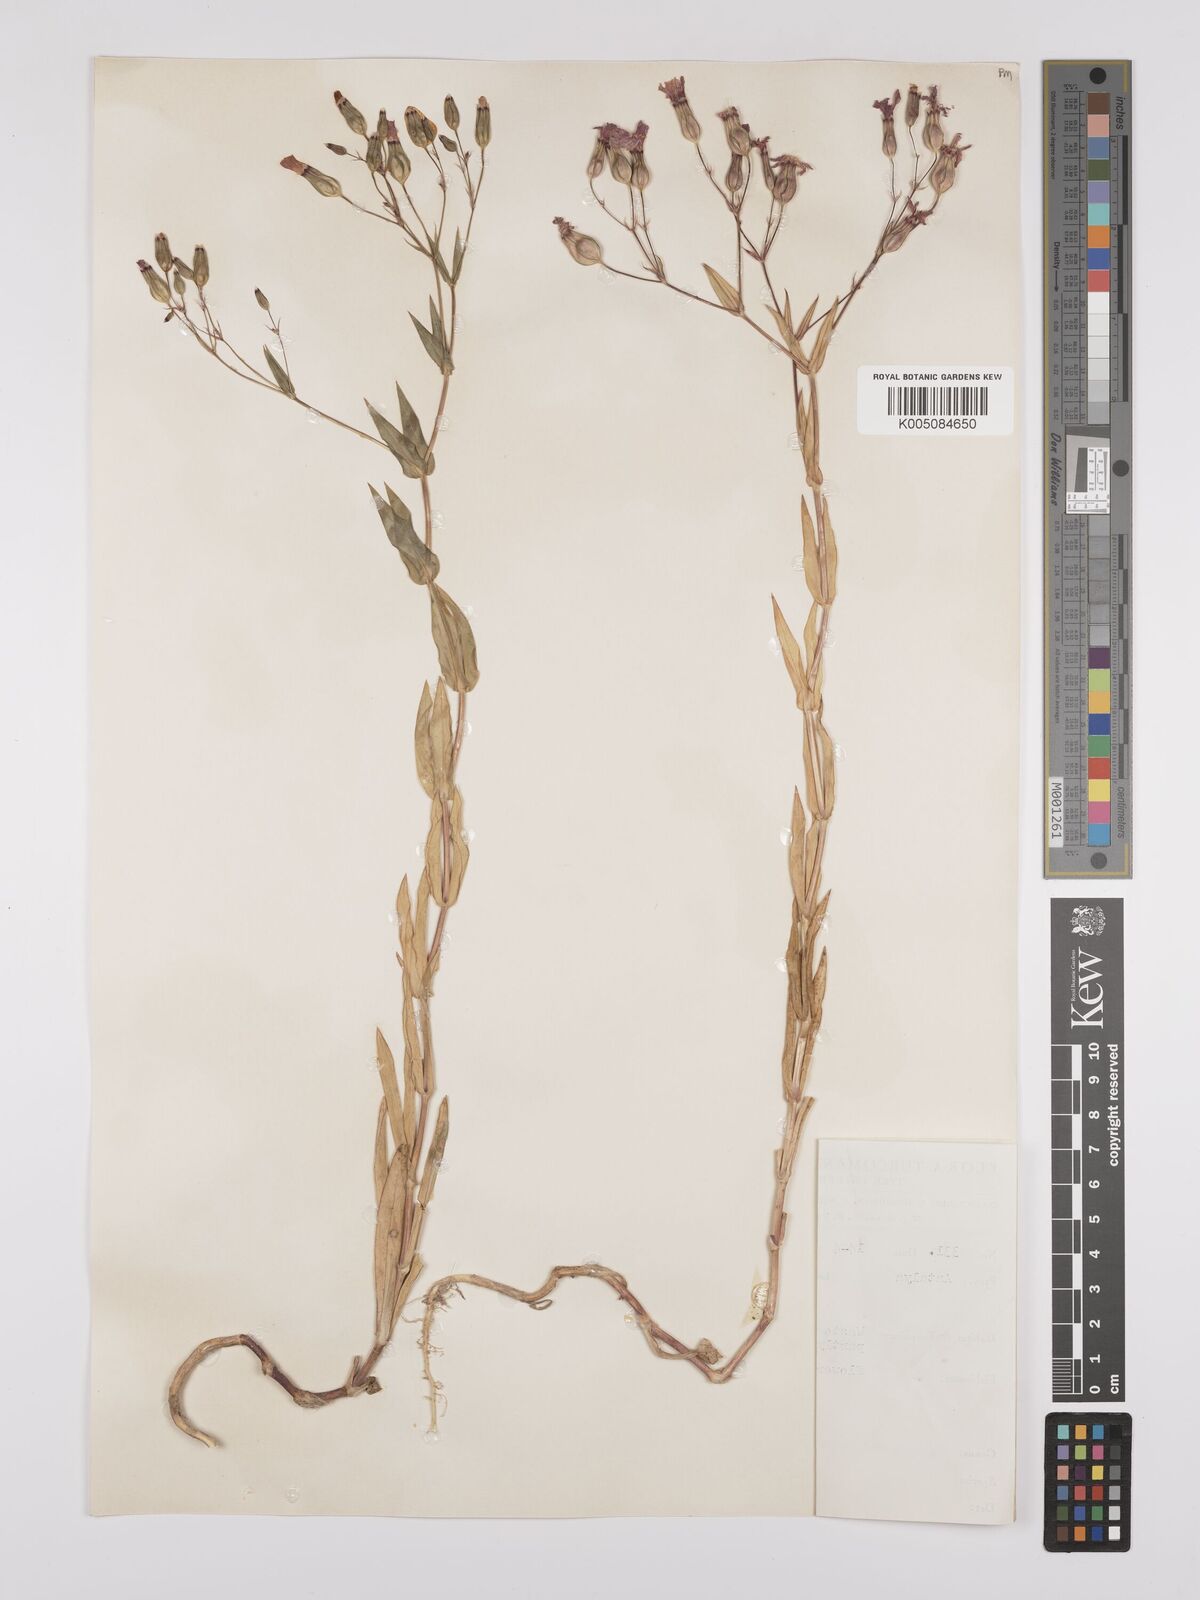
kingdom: Plantae
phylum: Tracheophyta
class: Magnoliopsida
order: Caryophyllales
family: Caryophyllaceae
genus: Vaccaria
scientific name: Vaccaria
